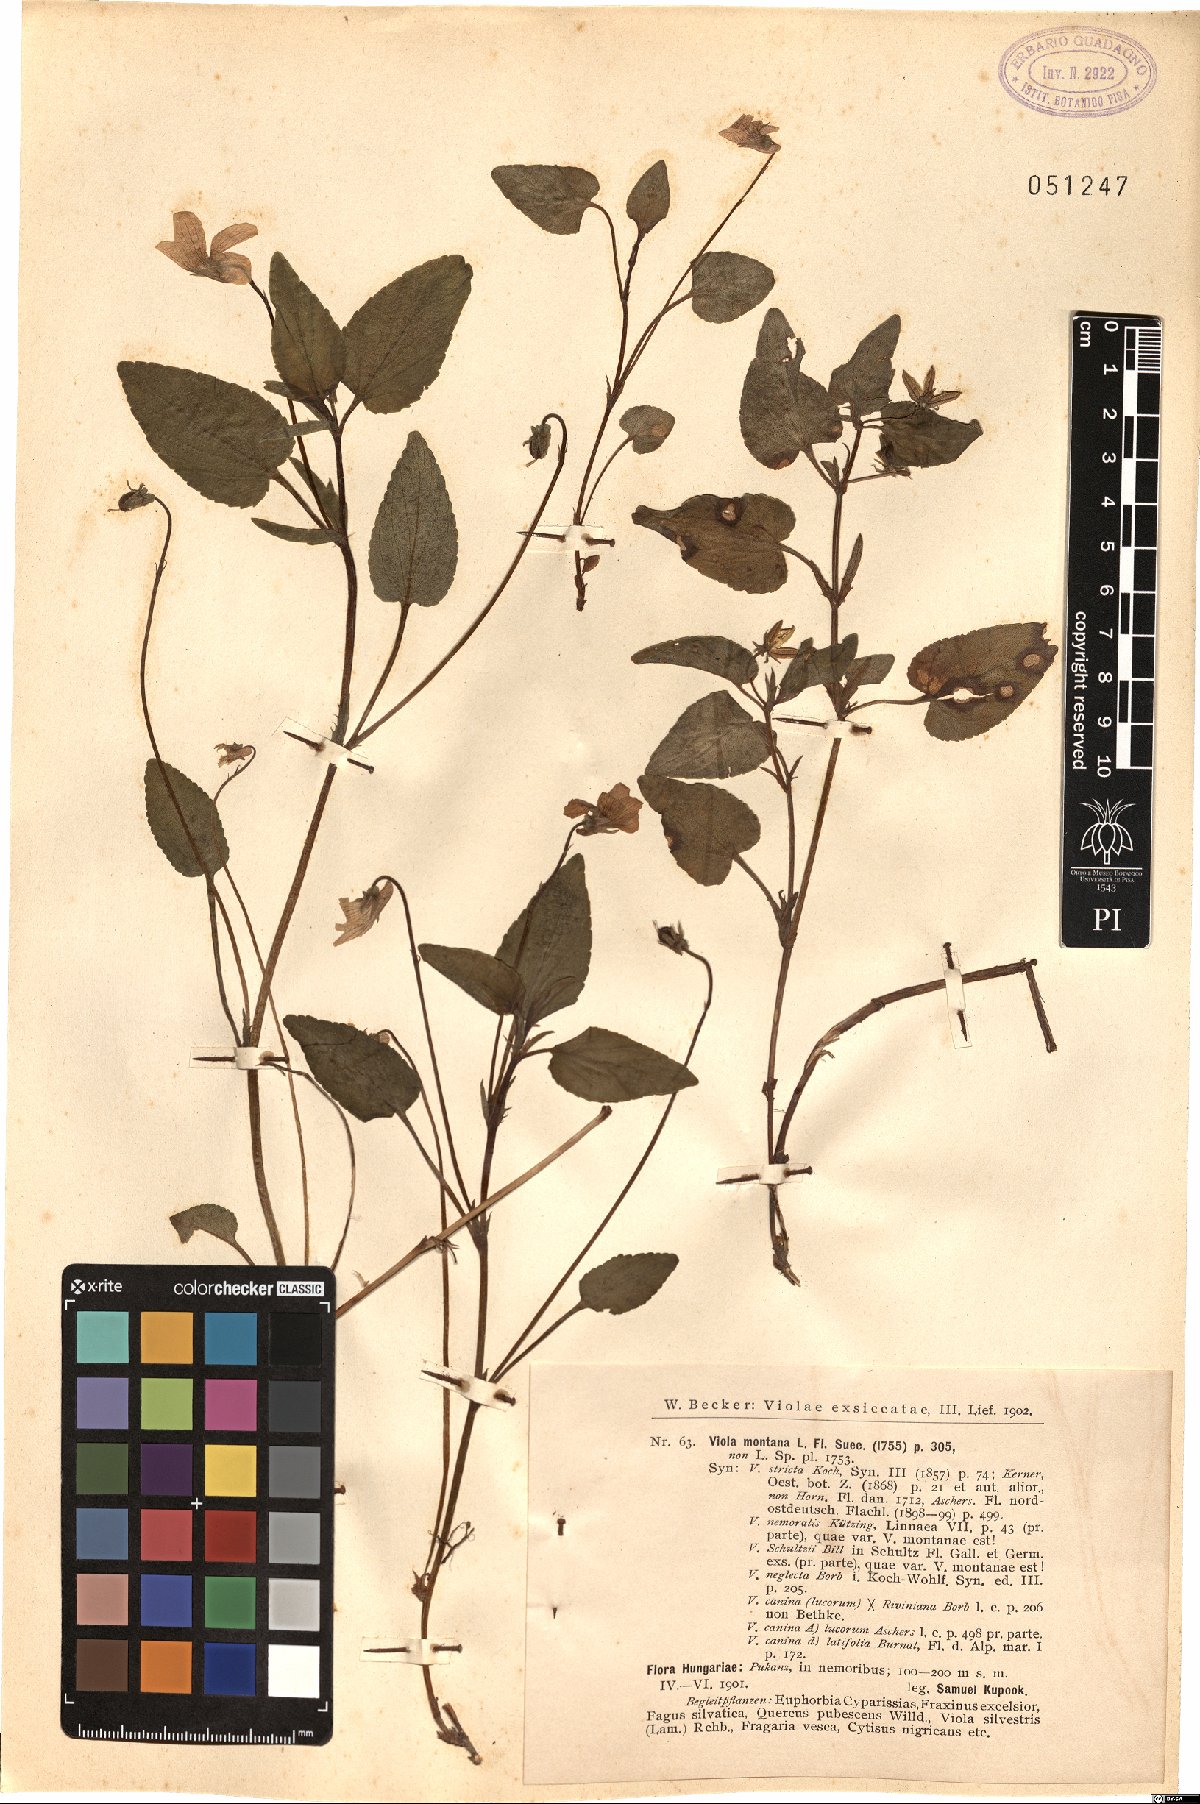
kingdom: Plantae
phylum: Tracheophyta
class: Magnoliopsida
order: Malpighiales
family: Violaceae
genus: Viola
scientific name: Viola ruppii
